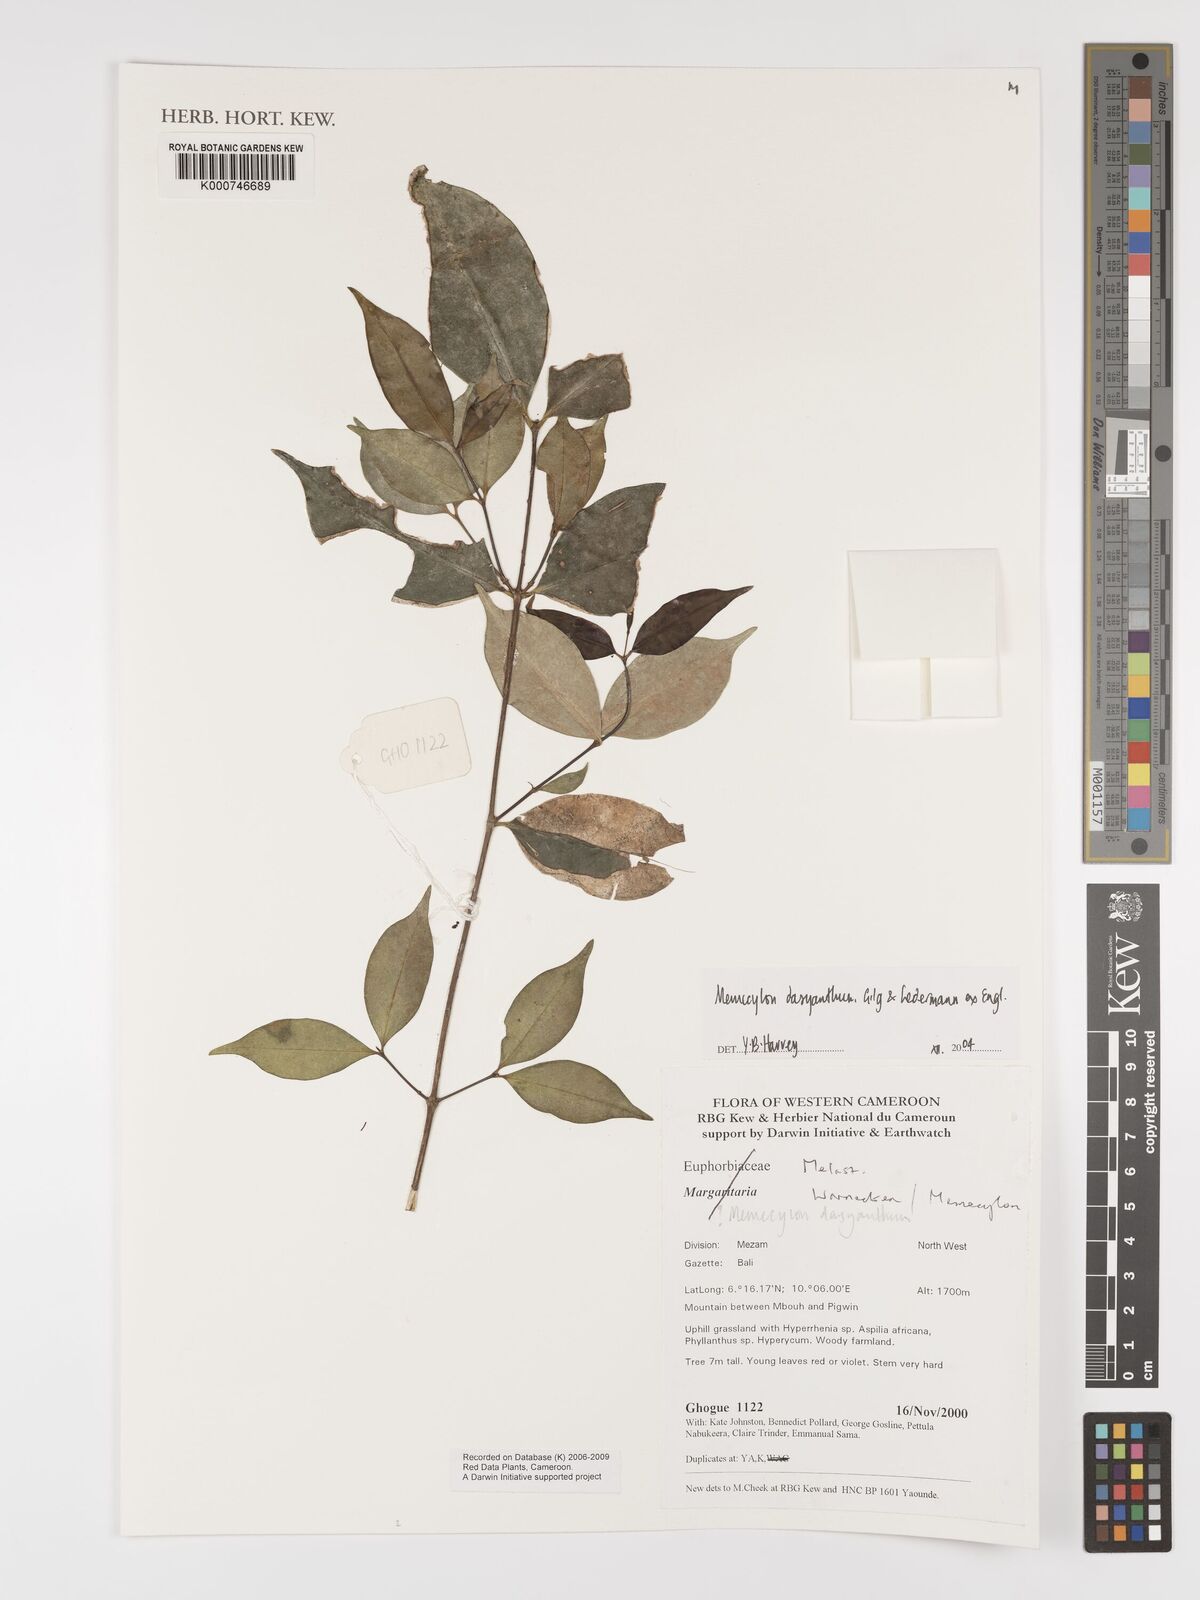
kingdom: Plantae
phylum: Tracheophyta
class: Magnoliopsida
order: Myrtales
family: Melastomataceae
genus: Memecylon
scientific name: Memecylon dasyanthum
